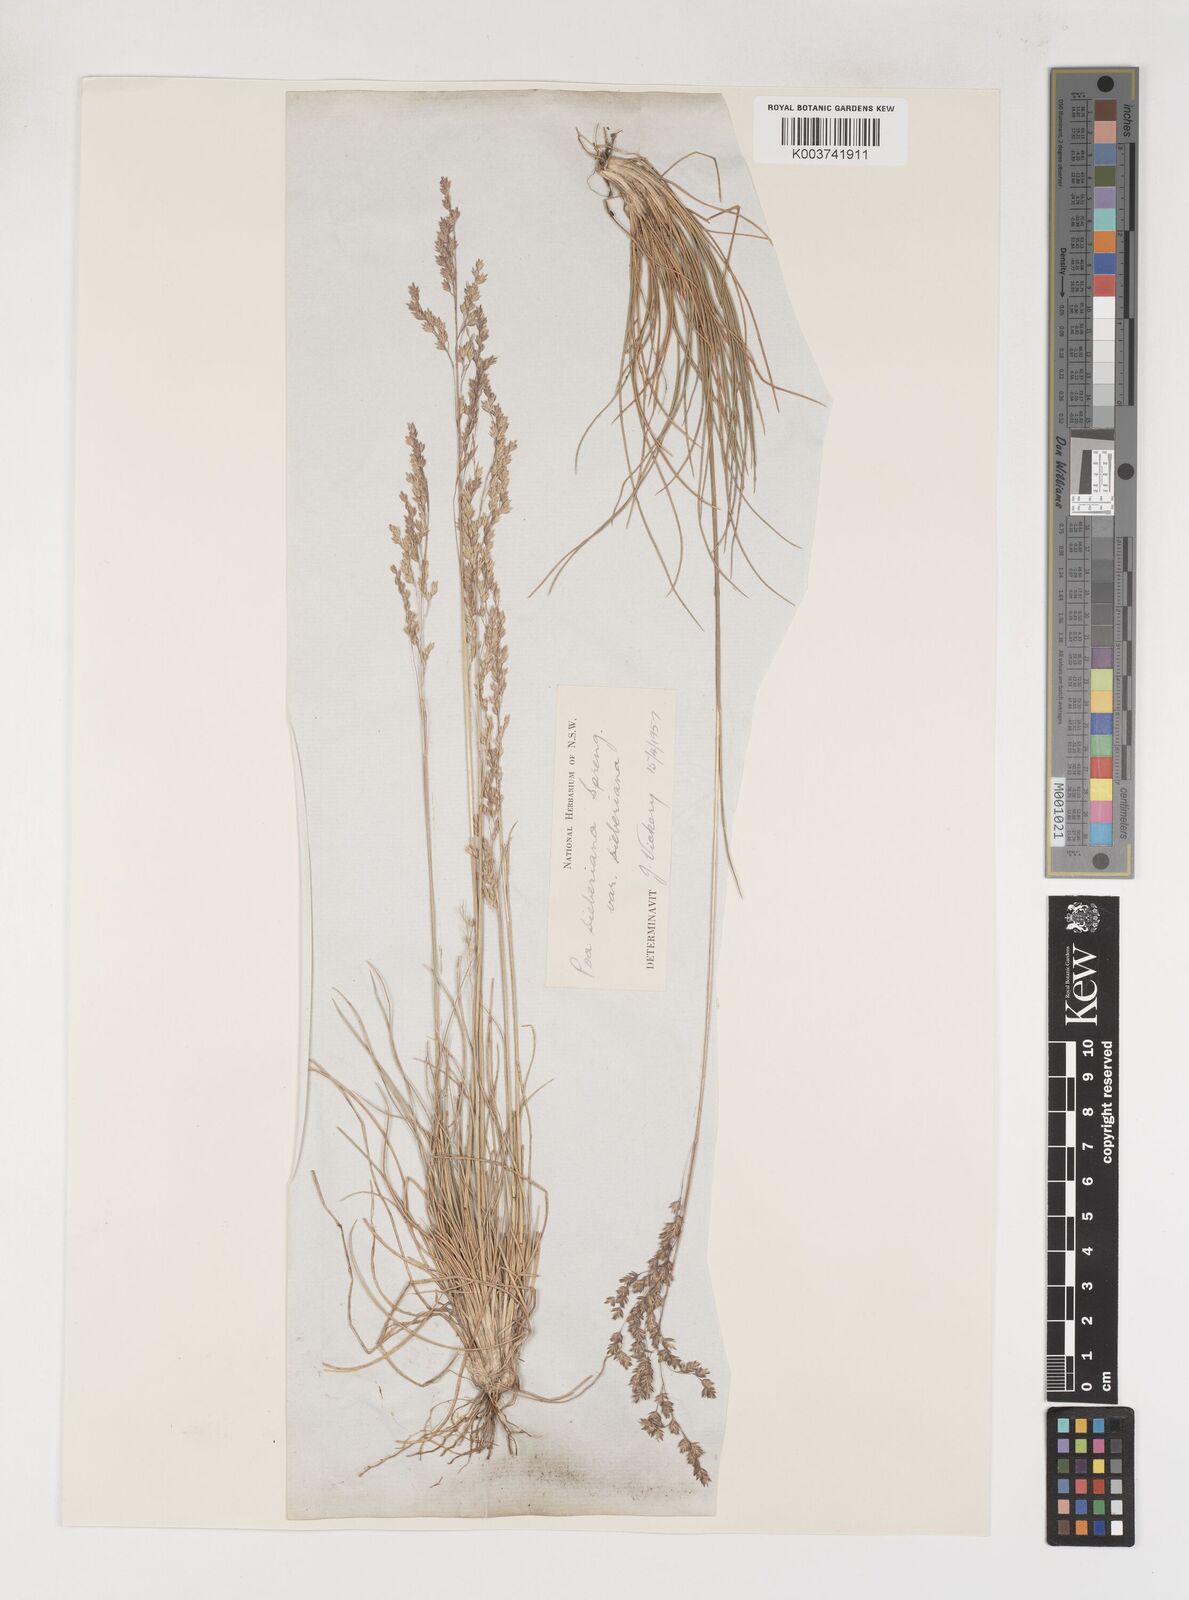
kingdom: Plantae
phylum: Tracheophyta
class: Liliopsida
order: Poales
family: Poaceae
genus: Poa
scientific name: Poa sieberiana
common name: Tussock poa
